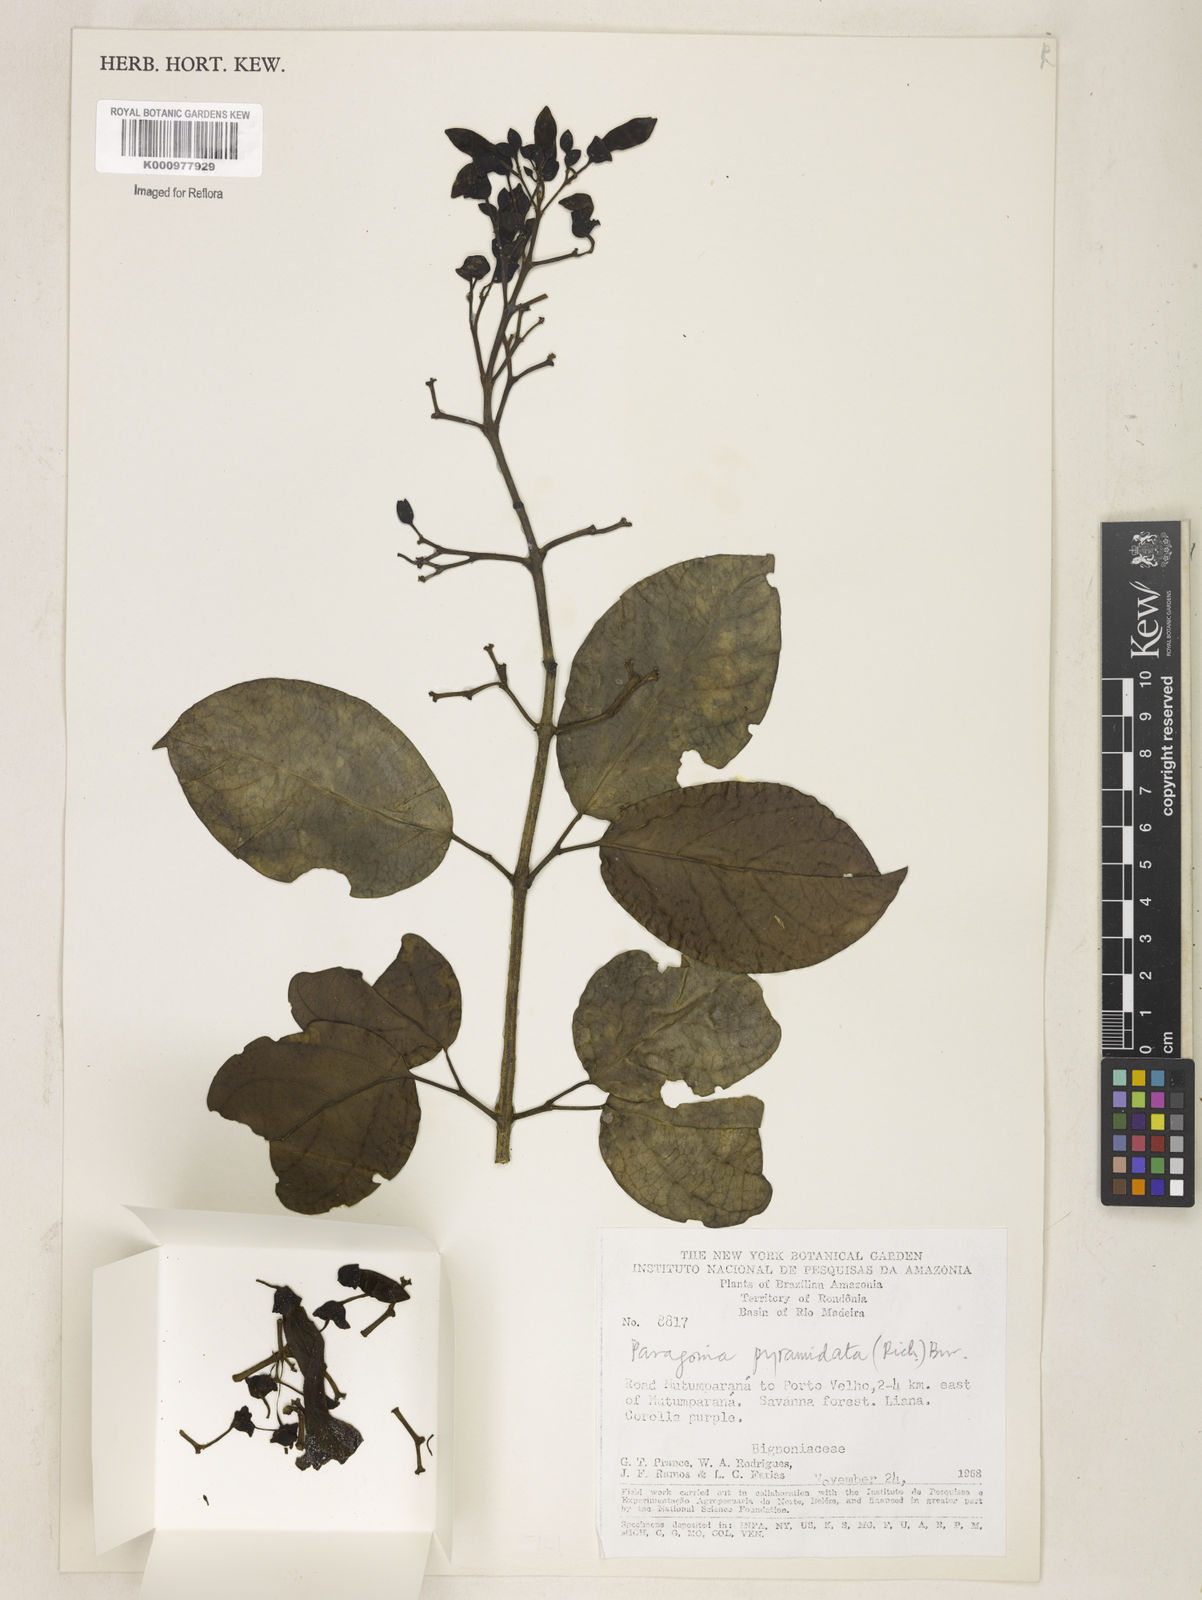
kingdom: Plantae
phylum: Tracheophyta
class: Magnoliopsida
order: Lamiales
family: Bignoniaceae
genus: Tanaecium
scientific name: Tanaecium pyramidatum
